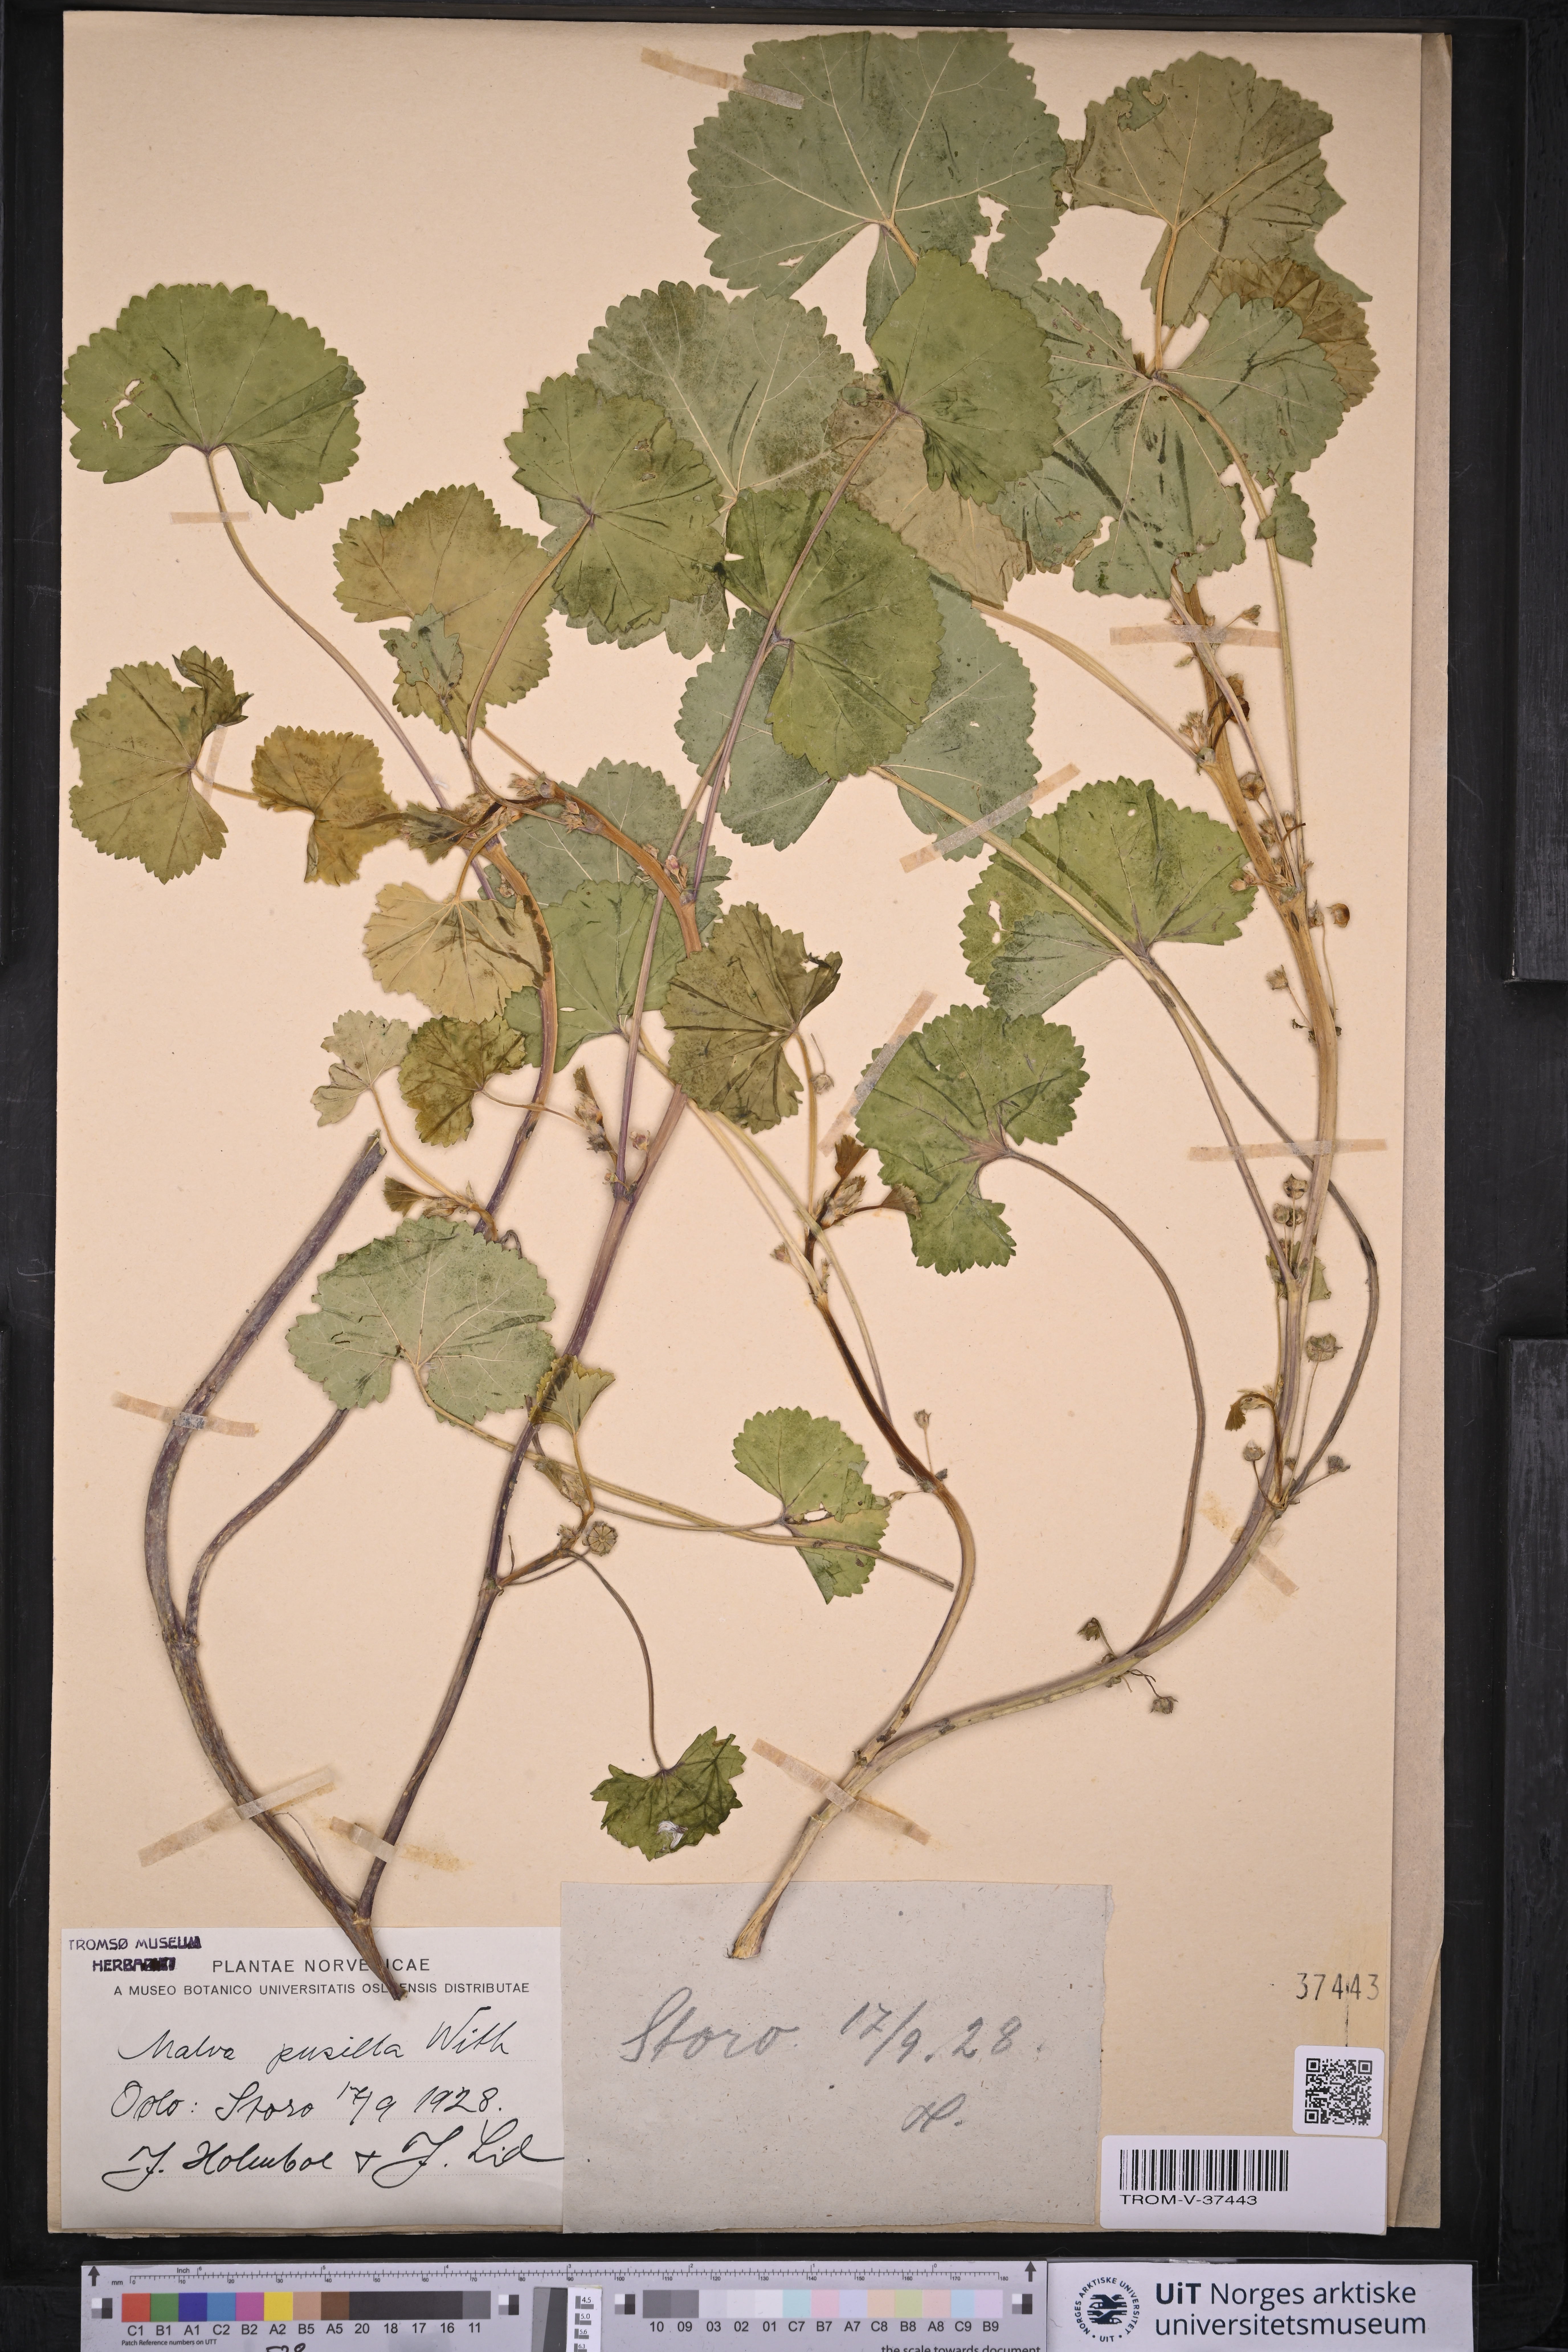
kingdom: Plantae
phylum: Tracheophyta
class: Magnoliopsida
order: Malvales
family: Malvaceae
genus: Malva
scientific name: Malva pusilla
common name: Small mallow
